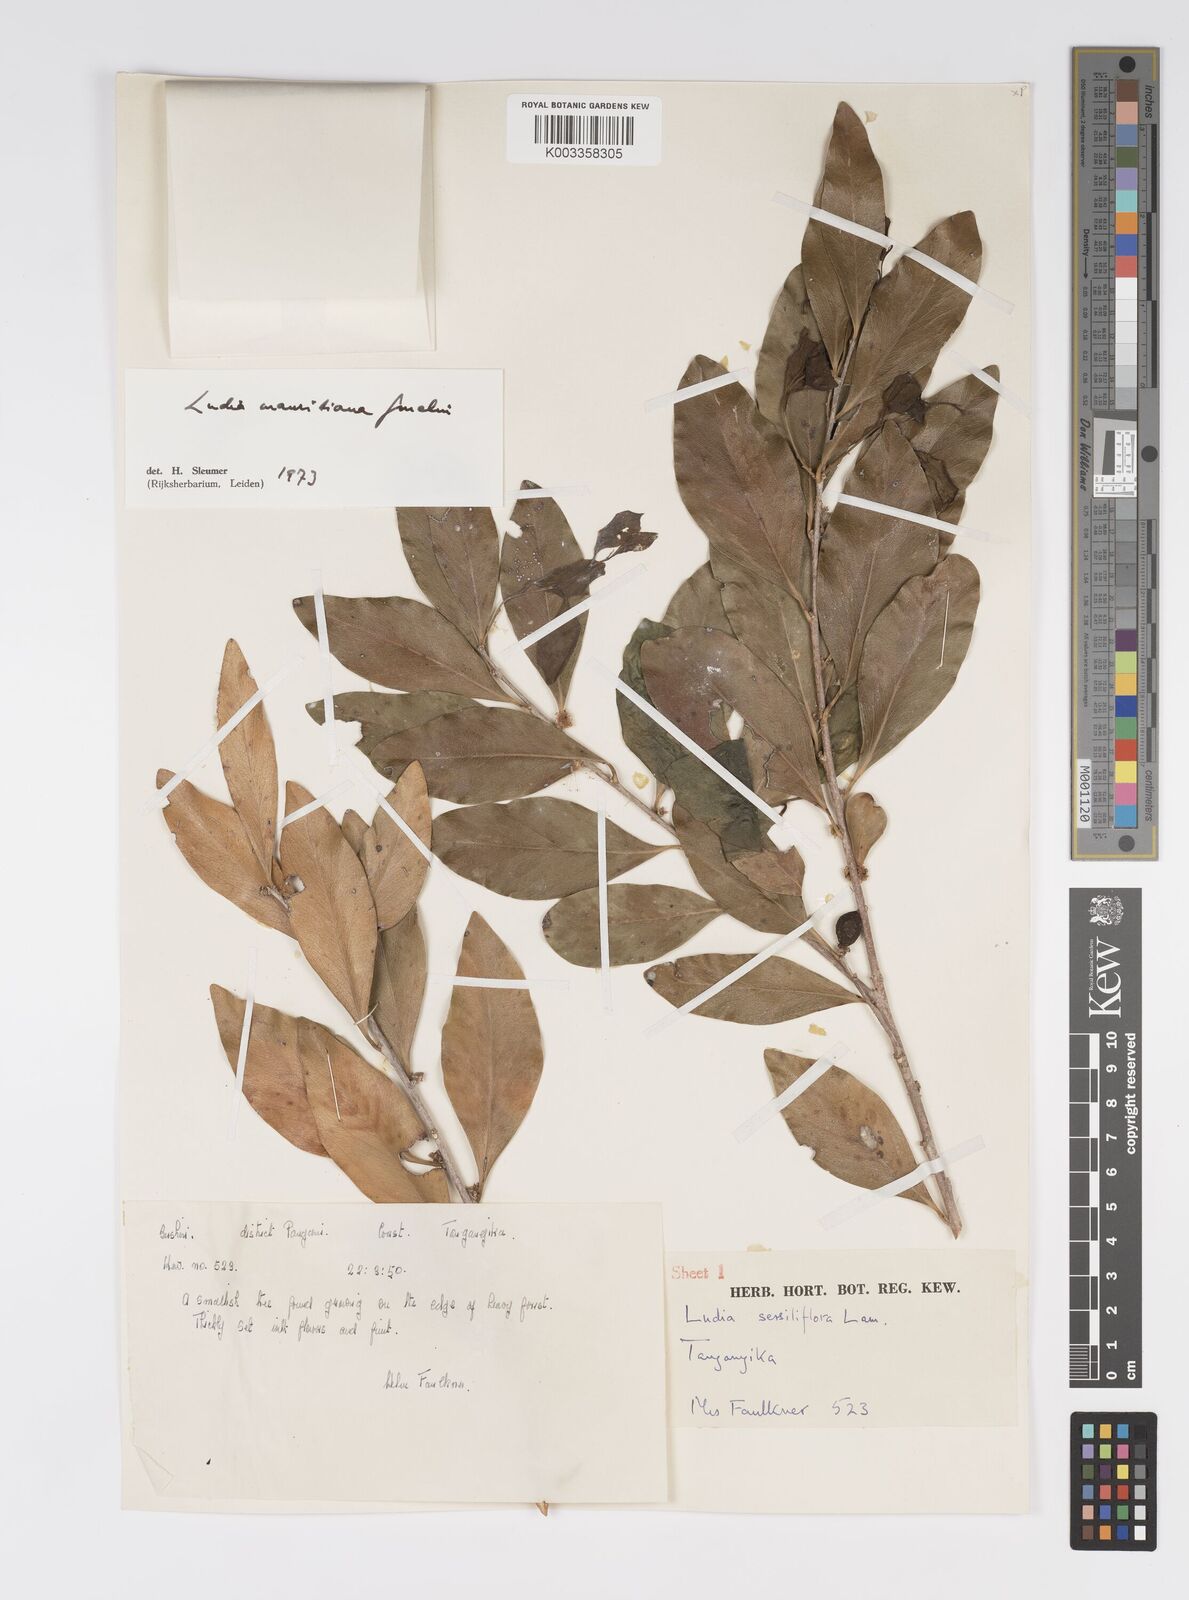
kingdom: Plantae
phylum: Tracheophyta
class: Magnoliopsida
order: Malpighiales
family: Salicaceae
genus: Ludia
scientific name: Ludia mauritiana
